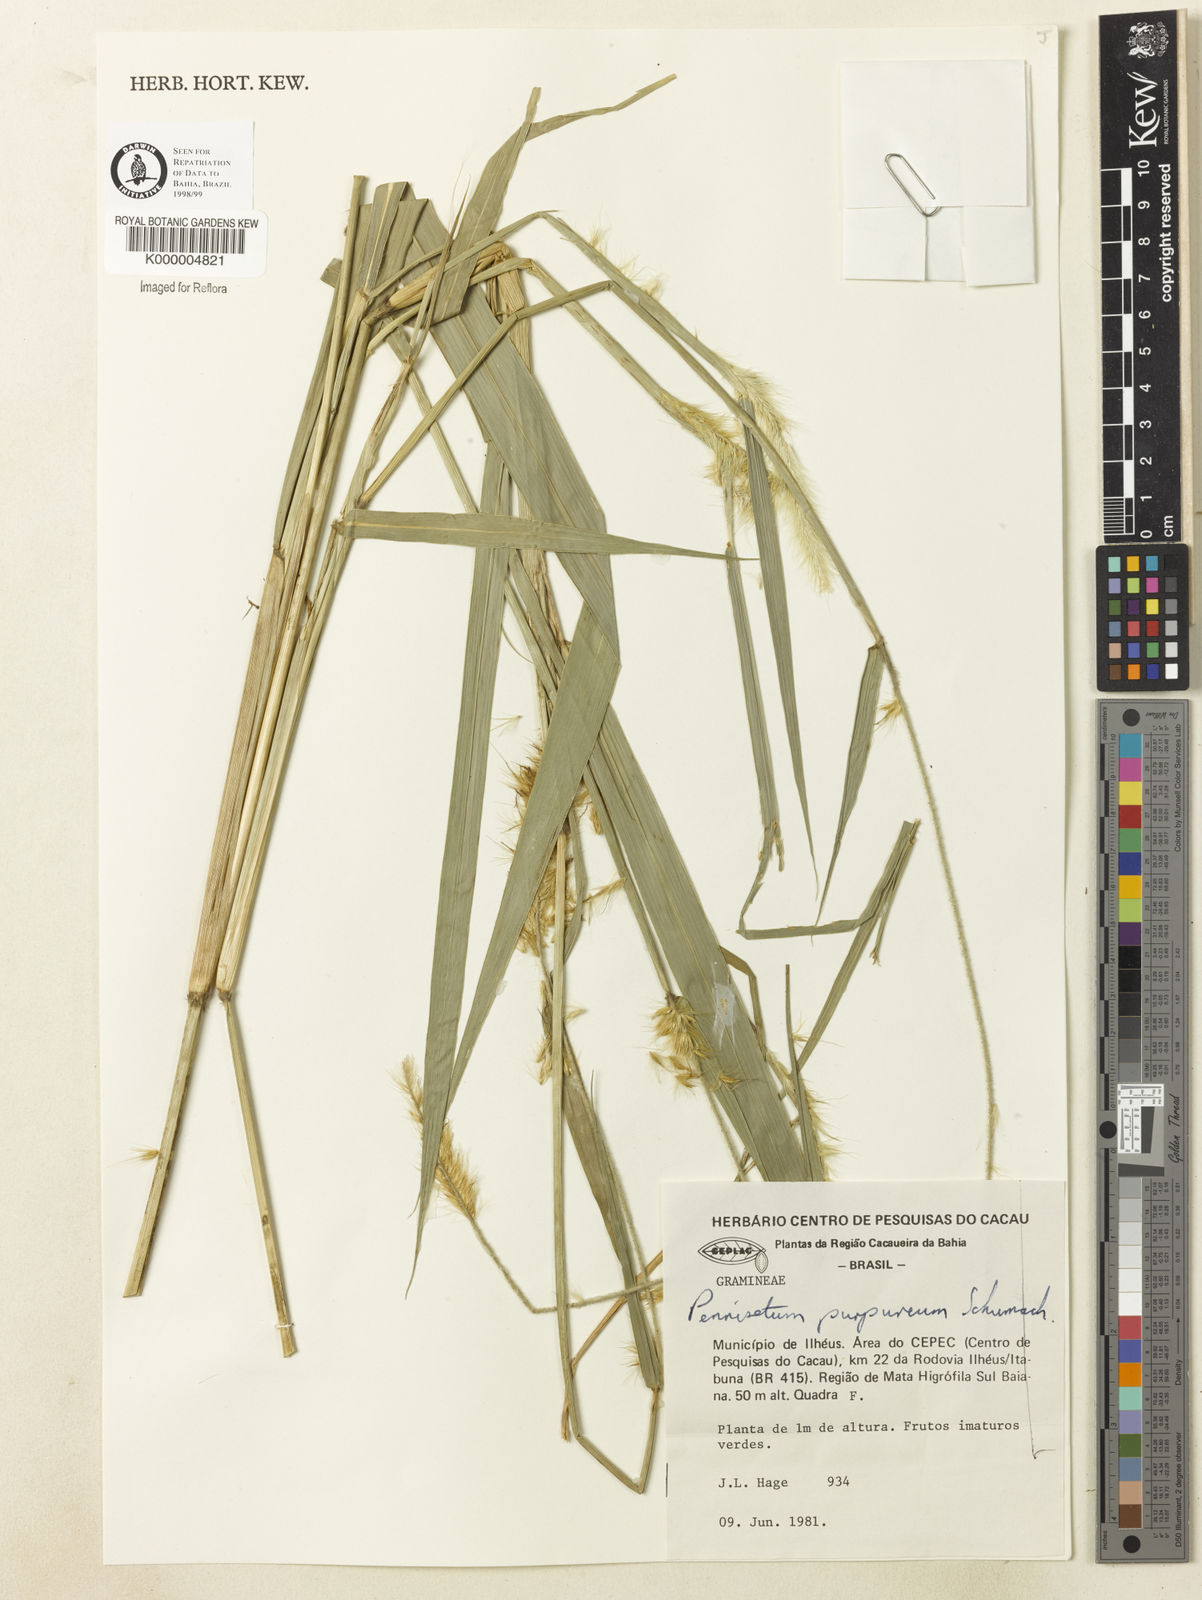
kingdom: Plantae
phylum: Tracheophyta
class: Liliopsida
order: Poales
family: Poaceae
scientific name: Poaceae
